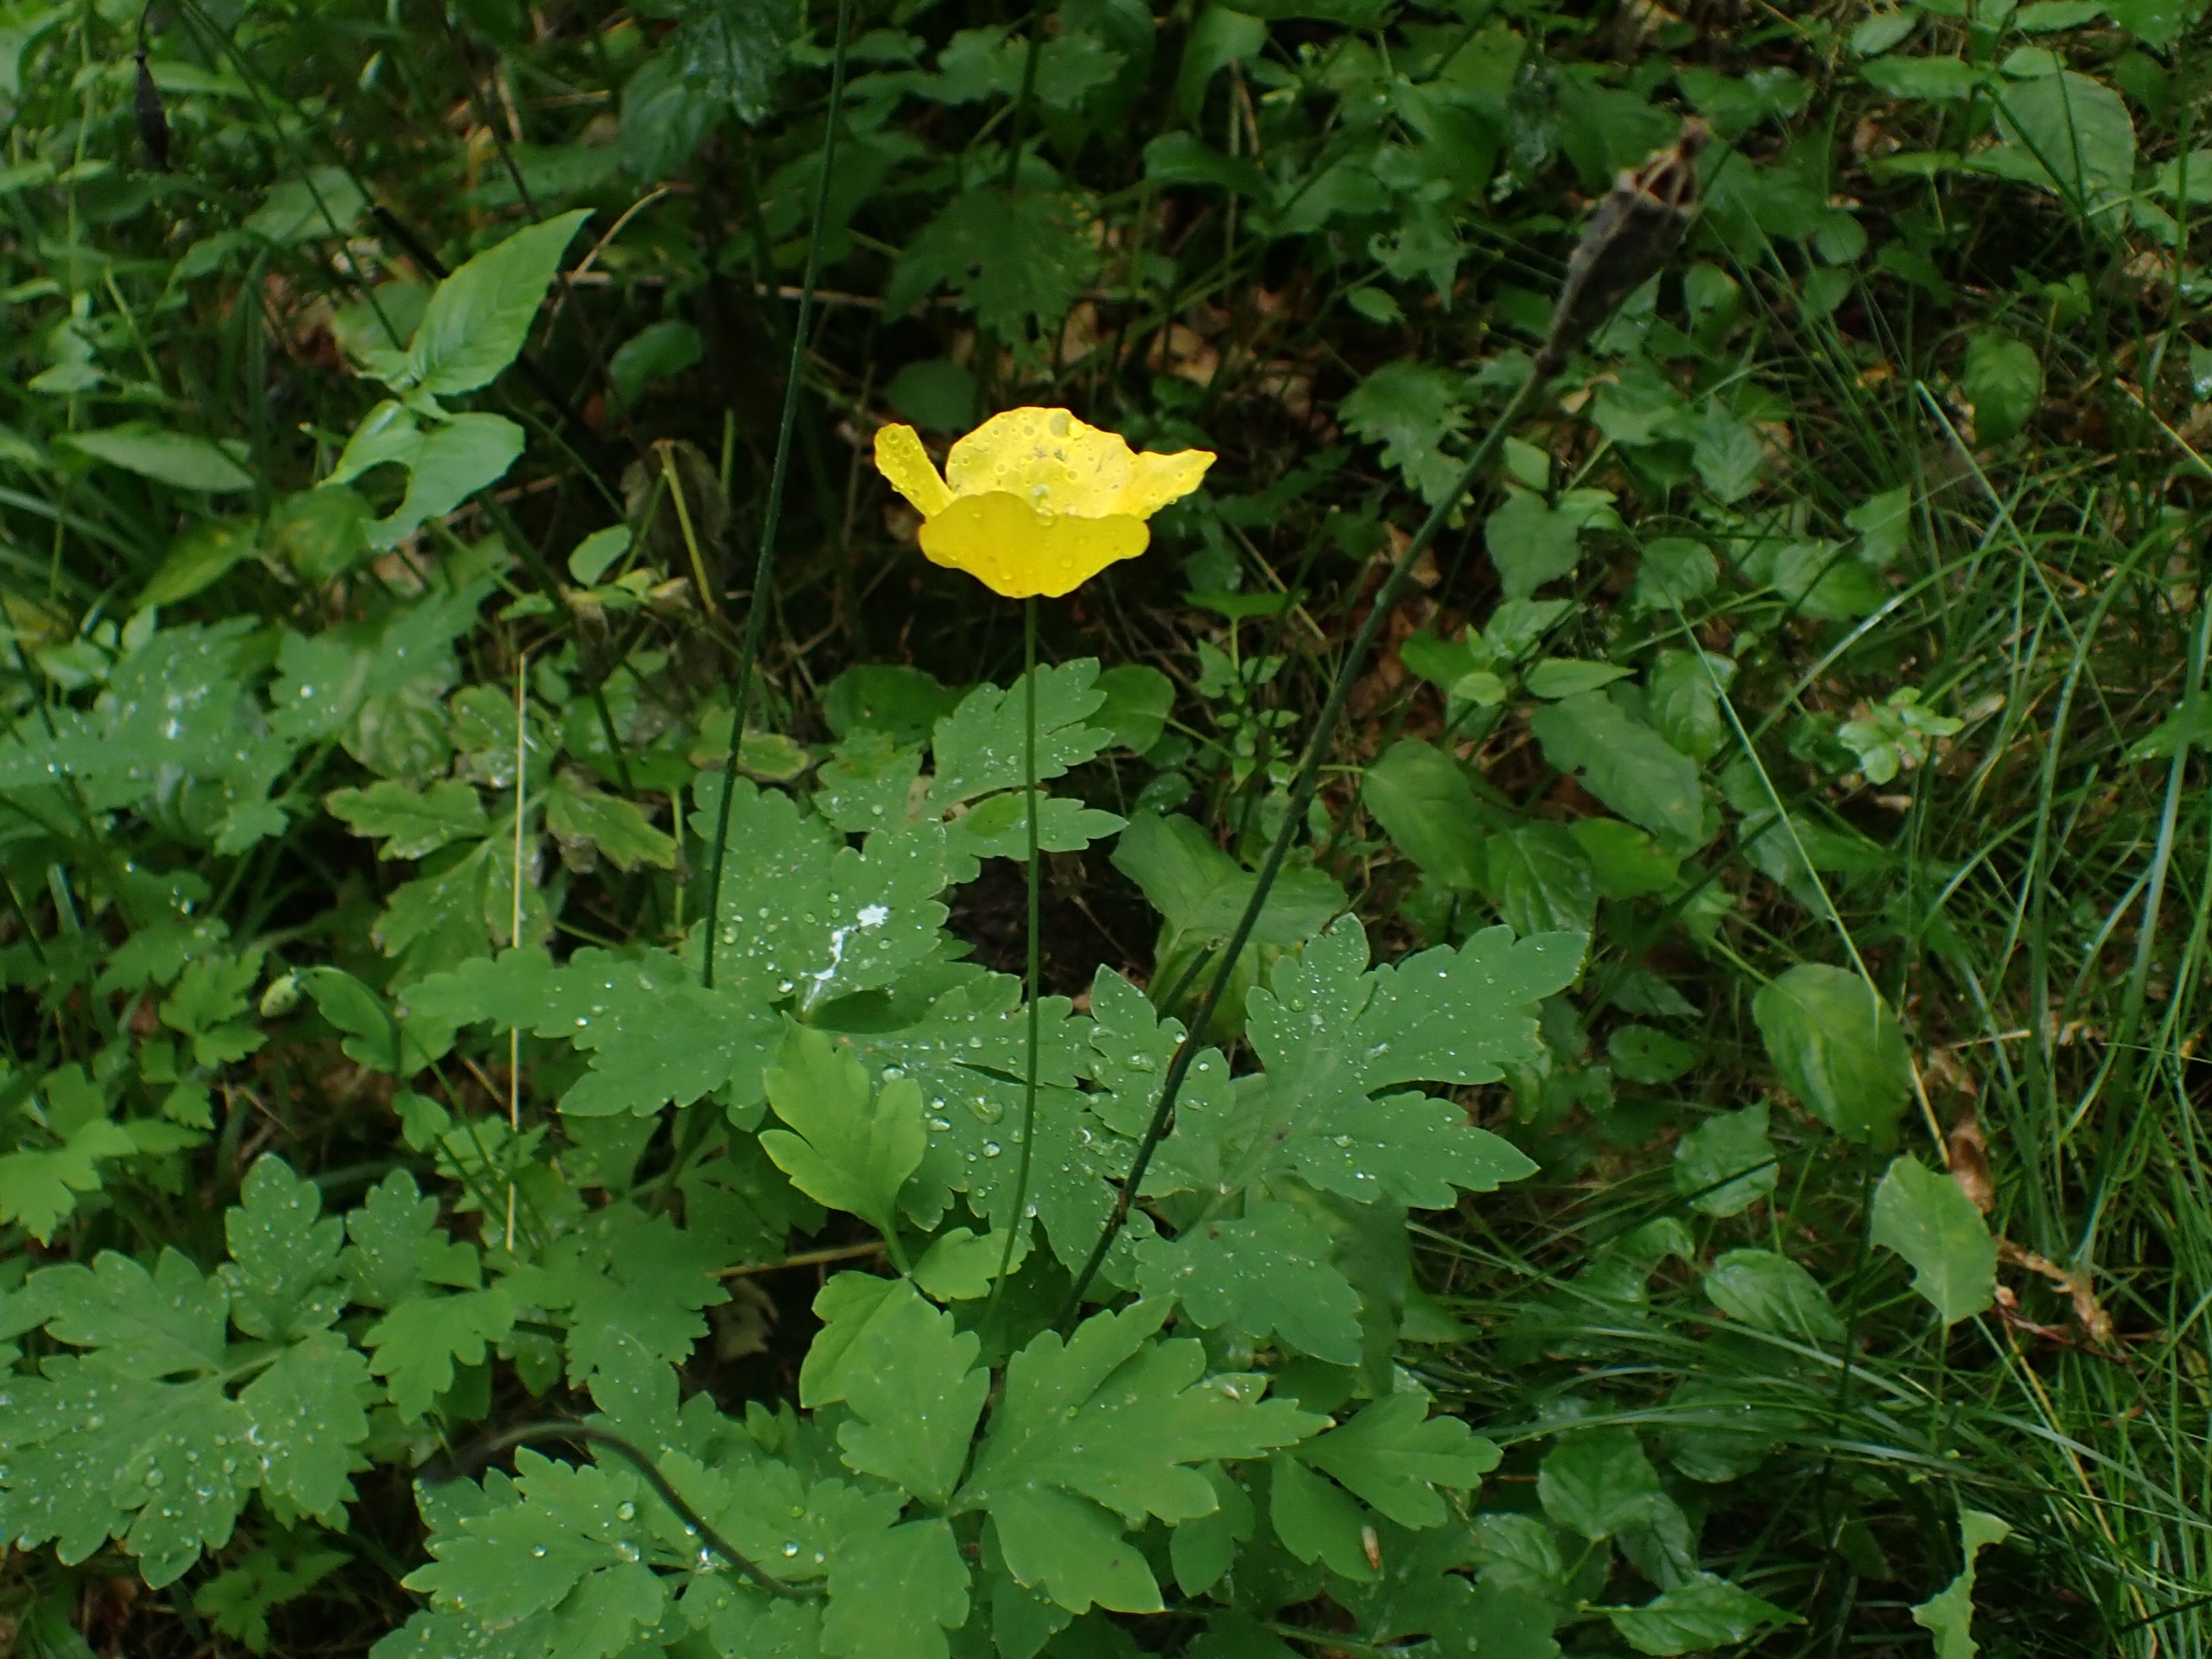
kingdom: Plantae
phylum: Tracheophyta
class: Magnoliopsida
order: Ranunculales
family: Papaveraceae
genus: Papaver
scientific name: Papaver cambricum
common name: Skov-valmue
